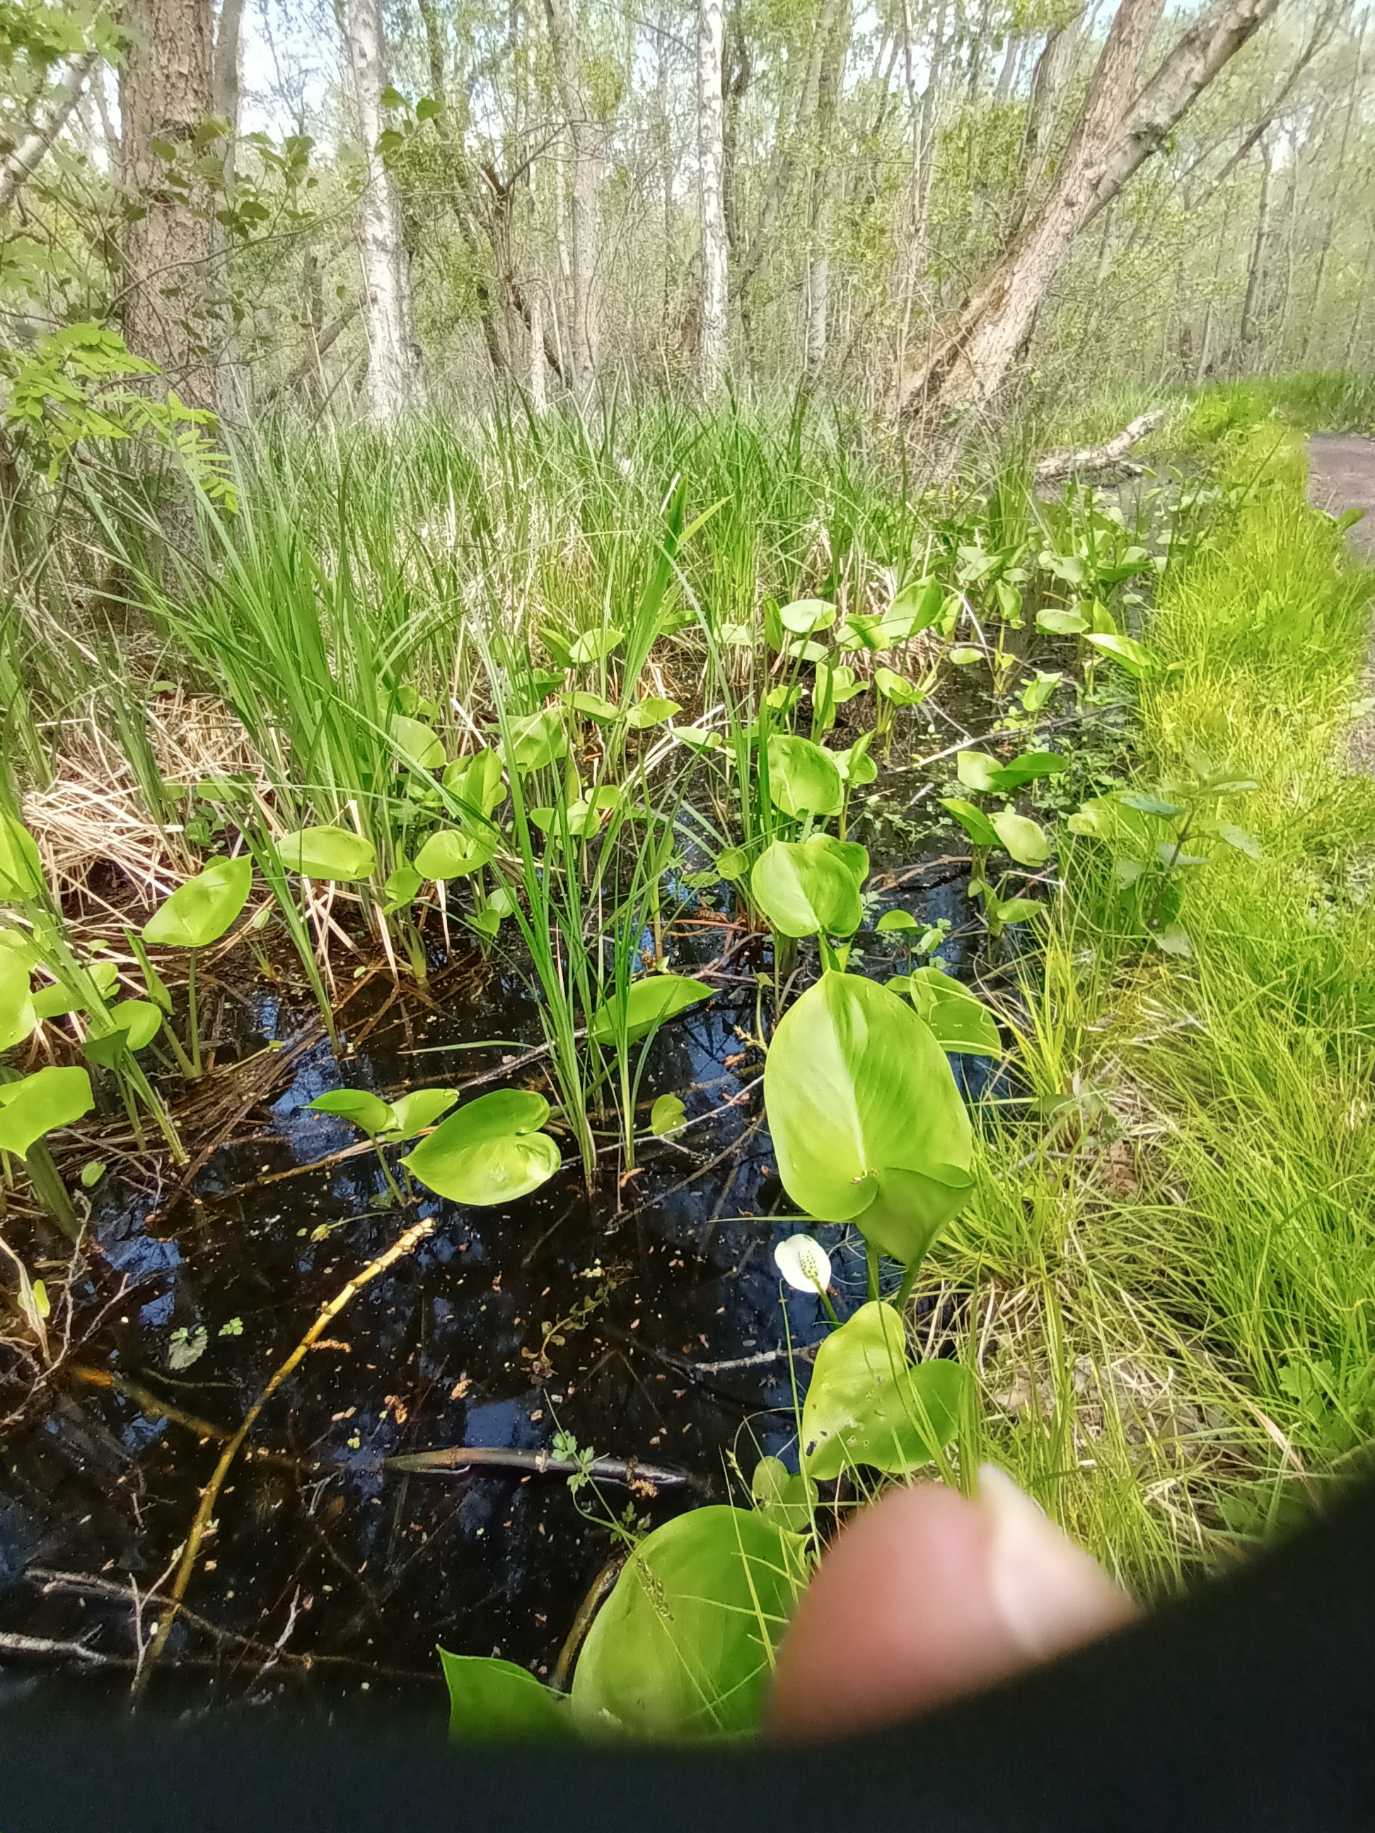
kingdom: Plantae
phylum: Tracheophyta
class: Liliopsida
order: Alismatales
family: Araceae
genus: Calla
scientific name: Calla palustris
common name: Kærmysse
